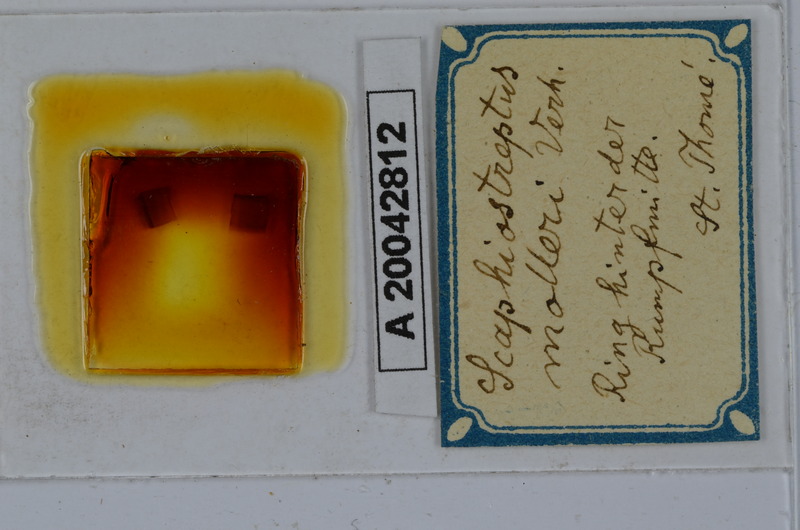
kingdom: Animalia
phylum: Arthropoda
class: Diplopoda
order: Spirostreptida
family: Spirostreptidae
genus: Globanus
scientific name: Globanus integer
